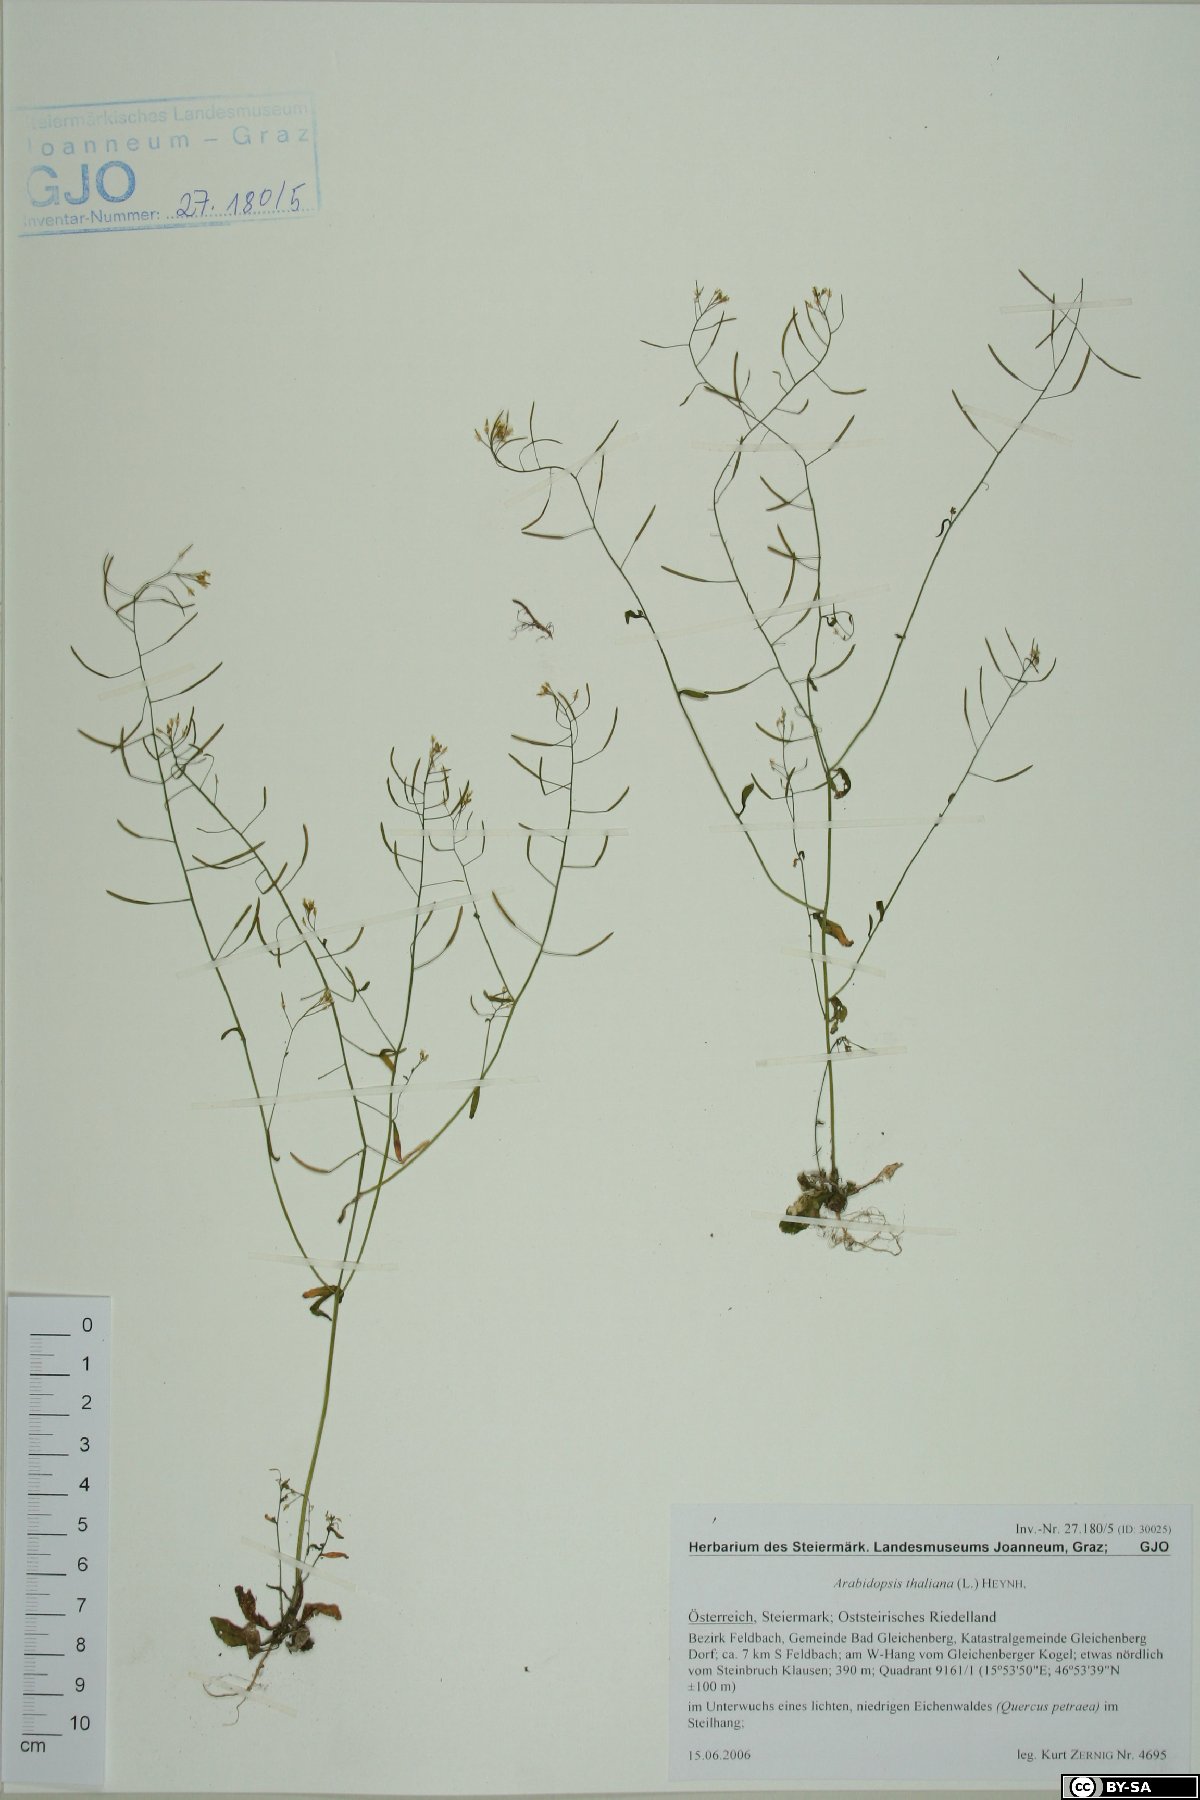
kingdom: Plantae
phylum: Tracheophyta
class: Magnoliopsida
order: Brassicales
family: Brassicaceae
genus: Arabidopsis
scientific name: Arabidopsis thaliana
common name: Thale cress
